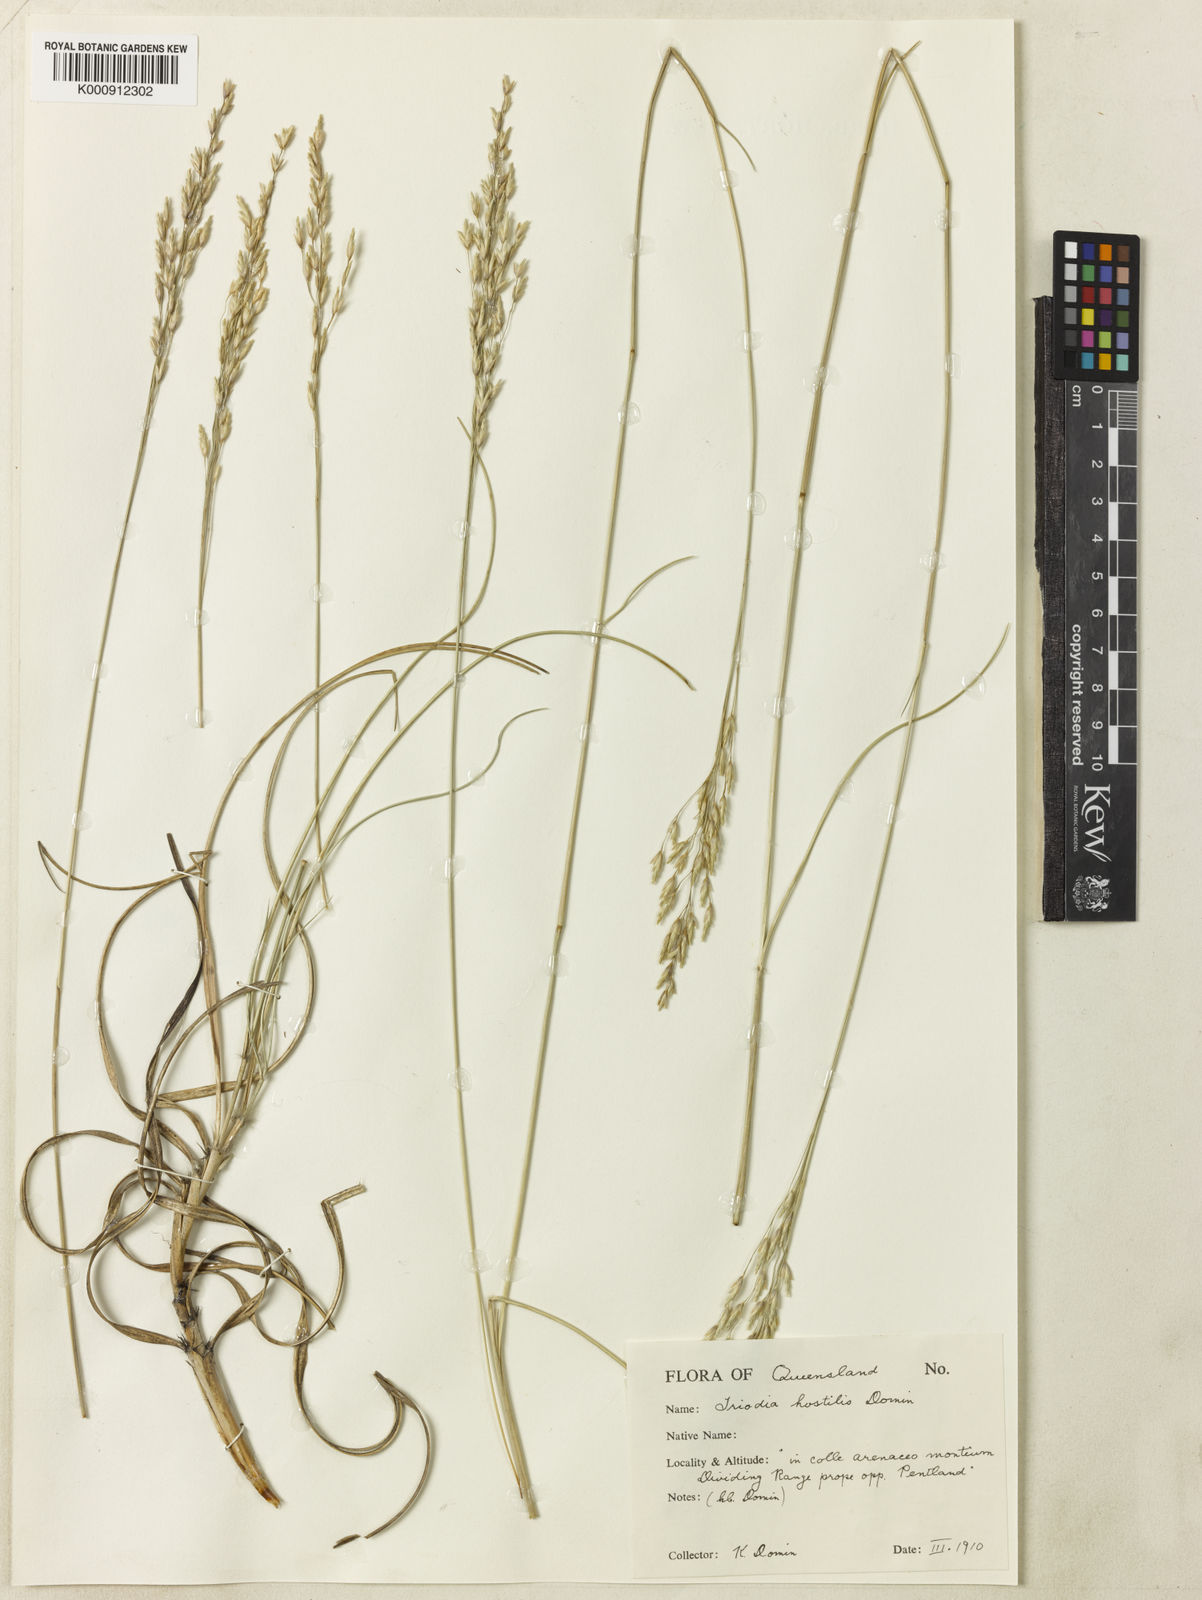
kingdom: Plantae
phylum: Tracheophyta
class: Liliopsida
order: Poales
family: Poaceae
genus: Triodia
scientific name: Triodia mitchellii
